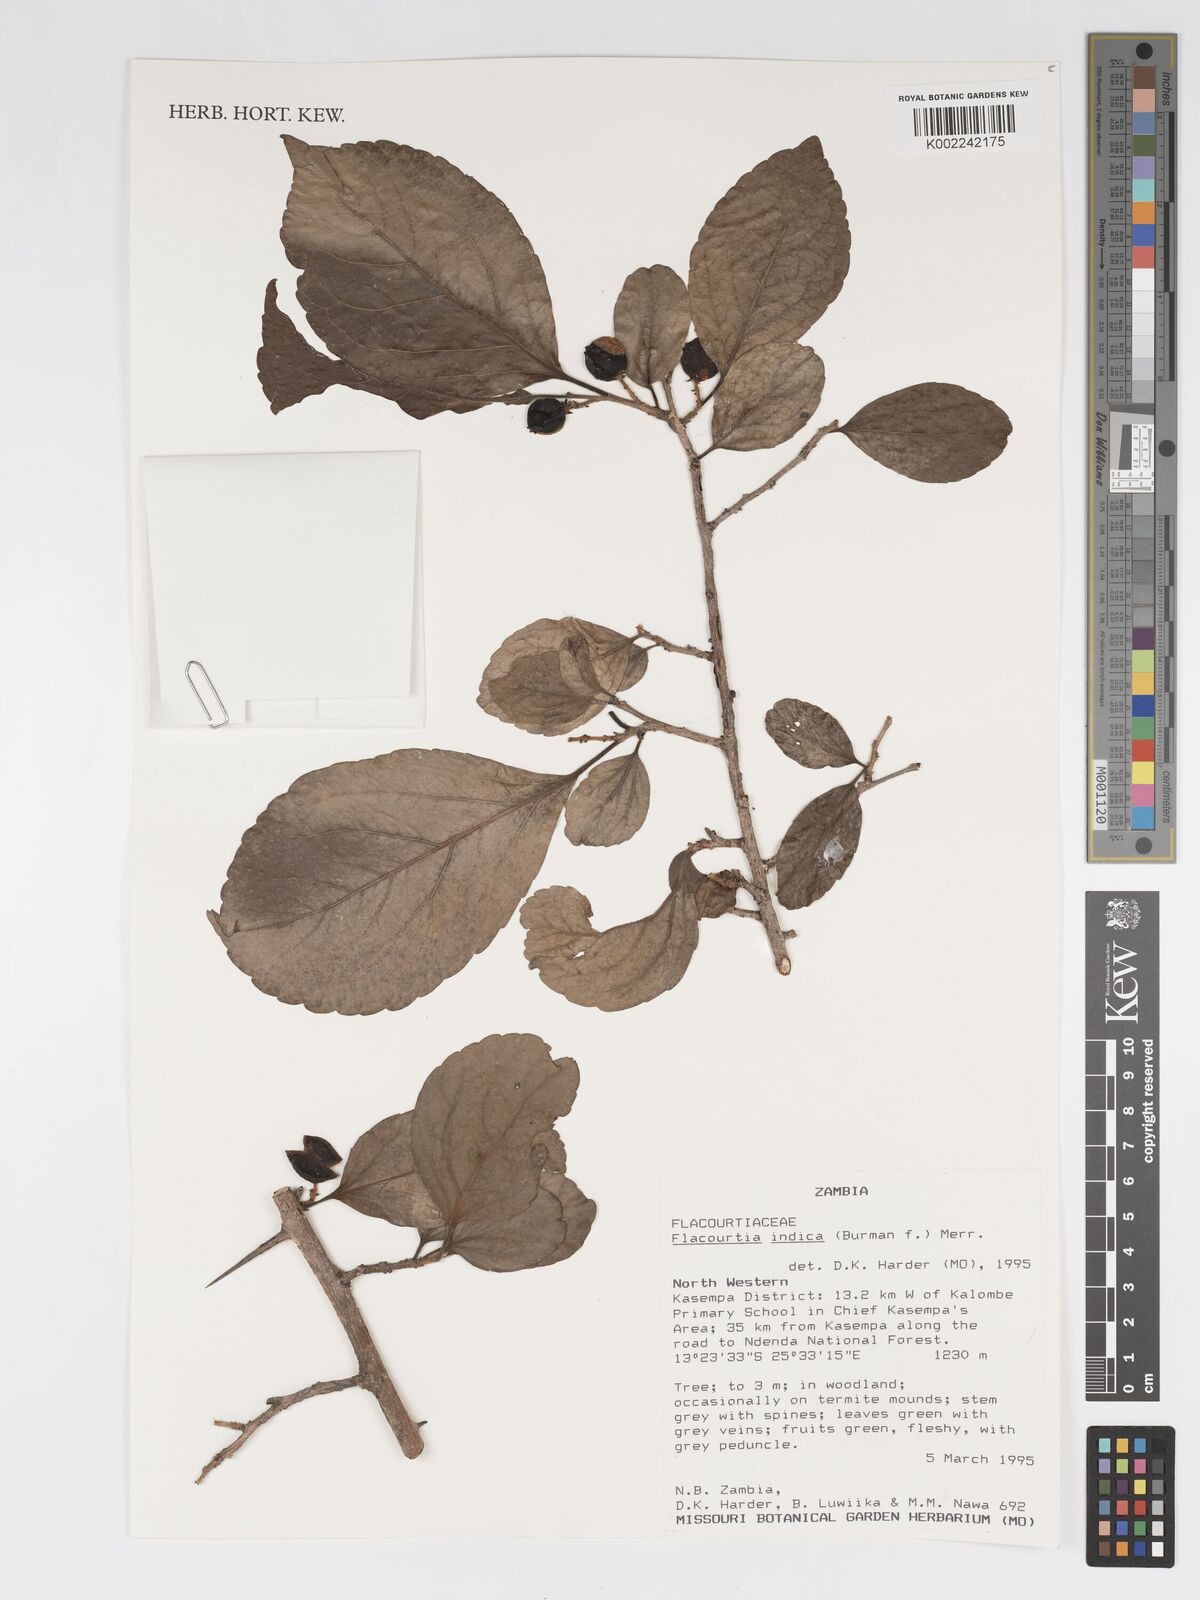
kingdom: Plantae
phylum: Tracheophyta
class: Magnoliopsida
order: Malpighiales
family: Salicaceae
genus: Flacourtia
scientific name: Flacourtia indica
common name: Governor's plum
